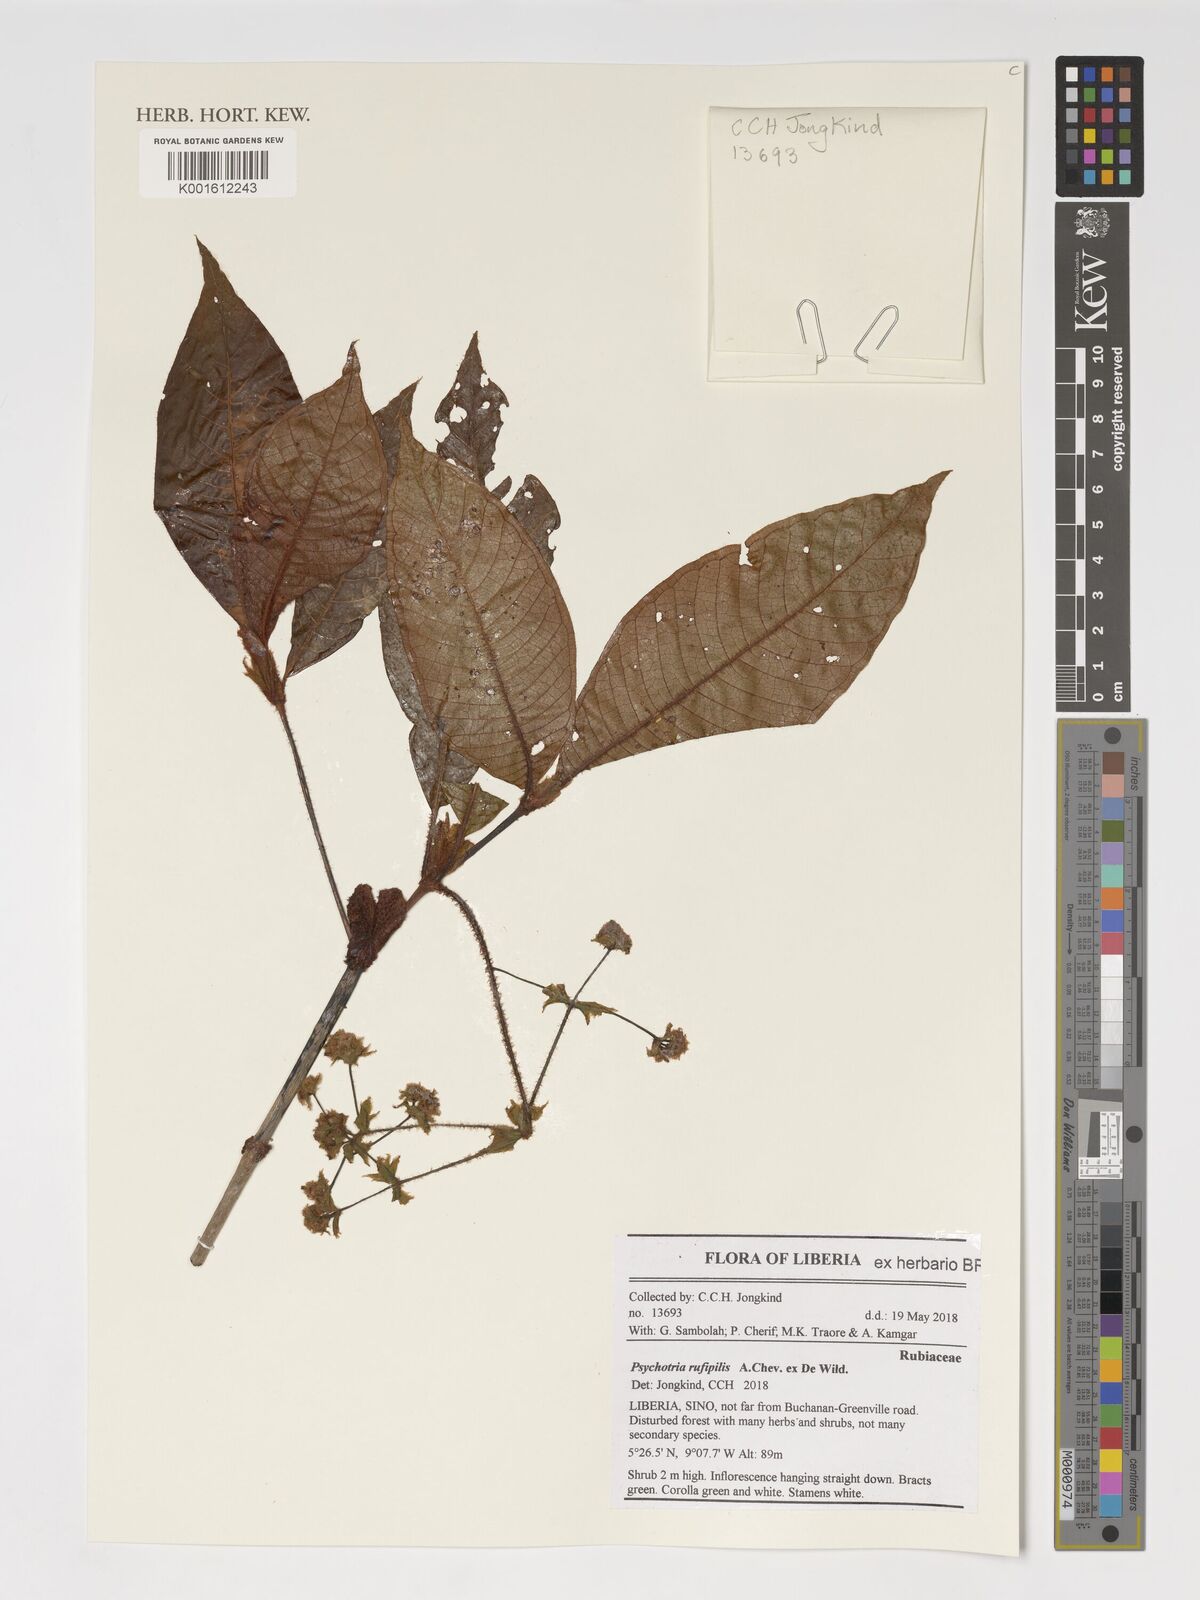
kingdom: Plantae
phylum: Tracheophyta
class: Magnoliopsida
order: Gentianales
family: Rubiaceae
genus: Psychotria
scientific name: Psychotria rufipilis
